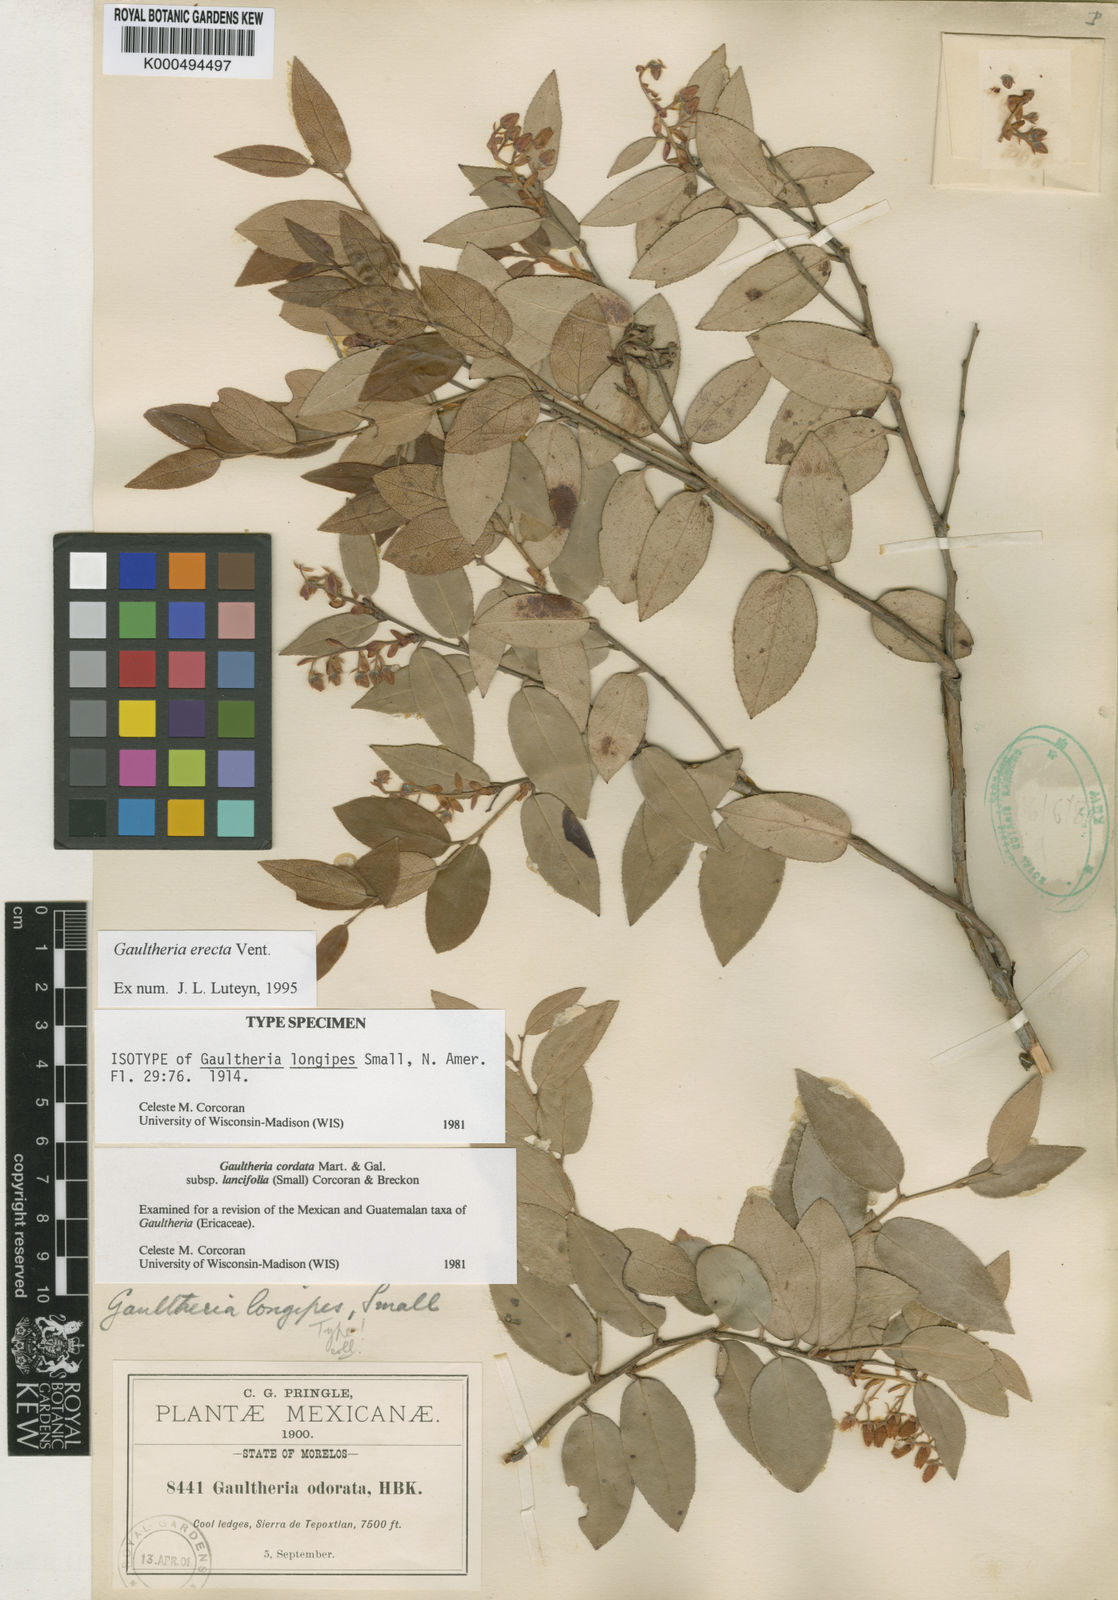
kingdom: Plantae
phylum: Tracheophyta
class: Magnoliopsida
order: Ericales
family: Ericaceae
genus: Gaultheria
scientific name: Gaultheria erecta
